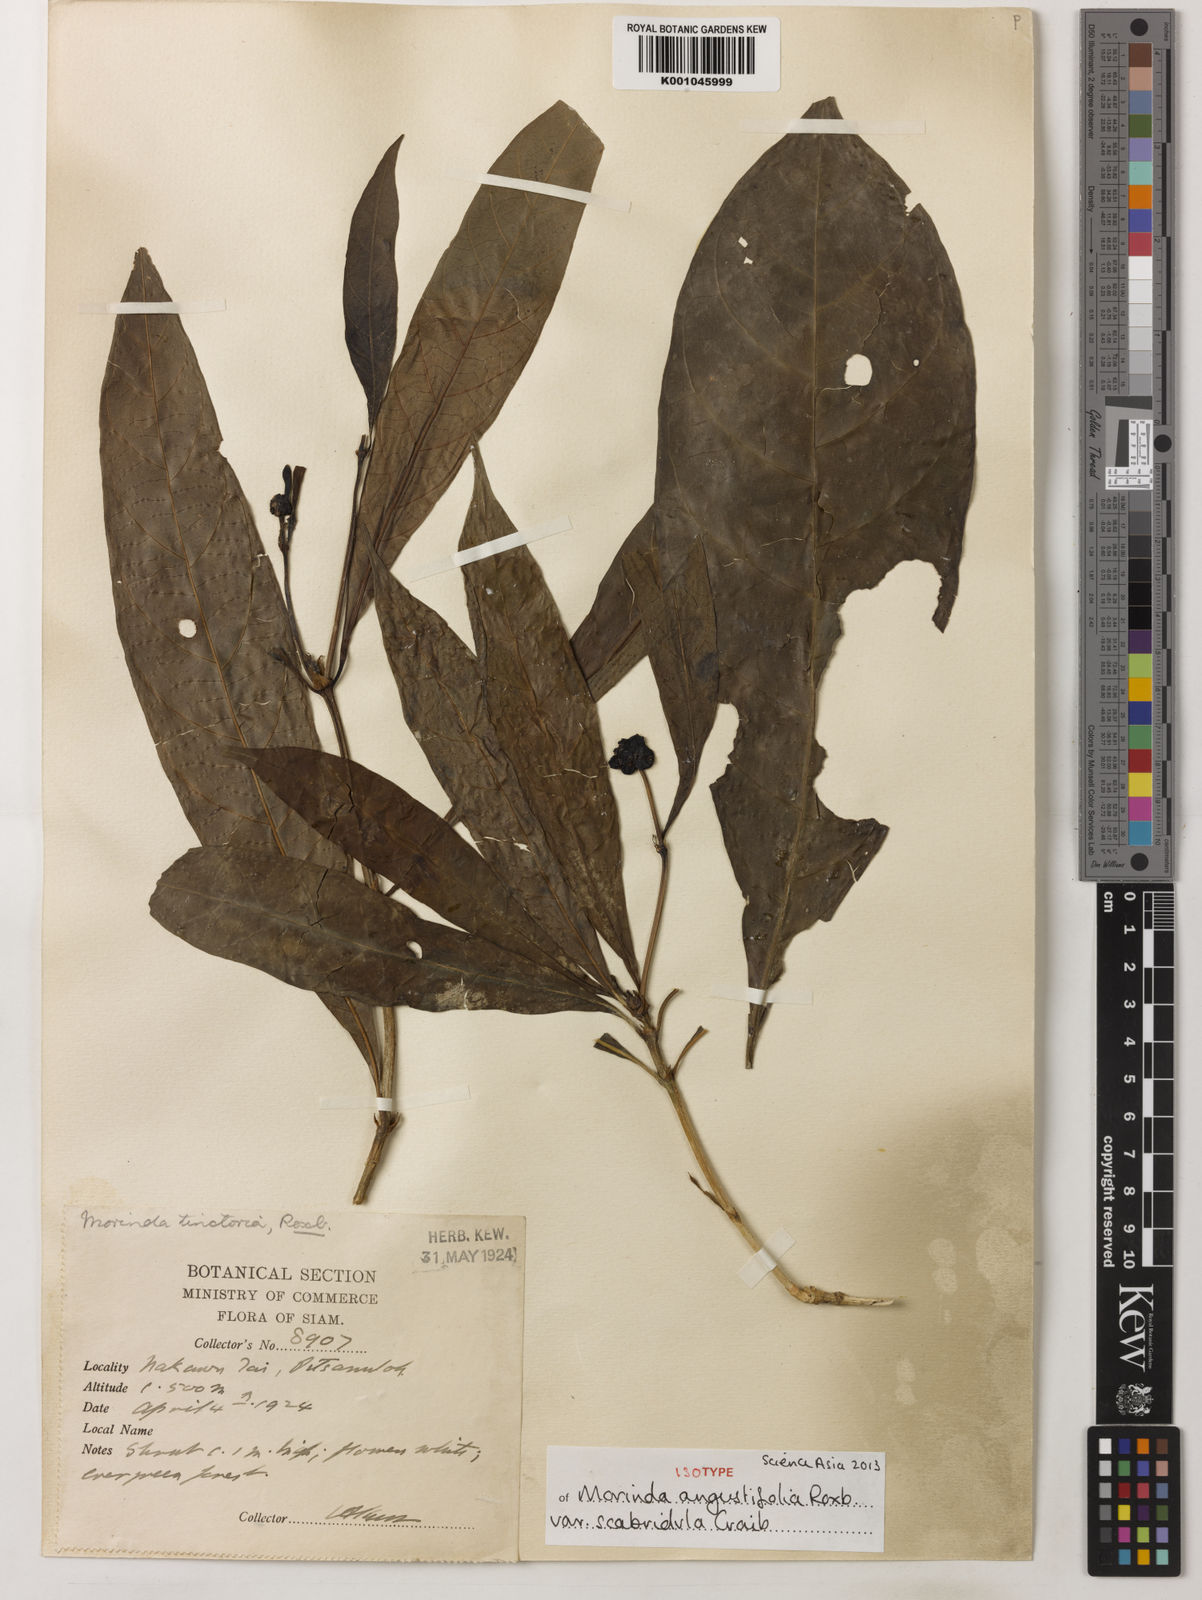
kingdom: Plantae
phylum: Tracheophyta
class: Magnoliopsida
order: Gentianales
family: Rubiaceae
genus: Morinda
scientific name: Morinda angustifolia
